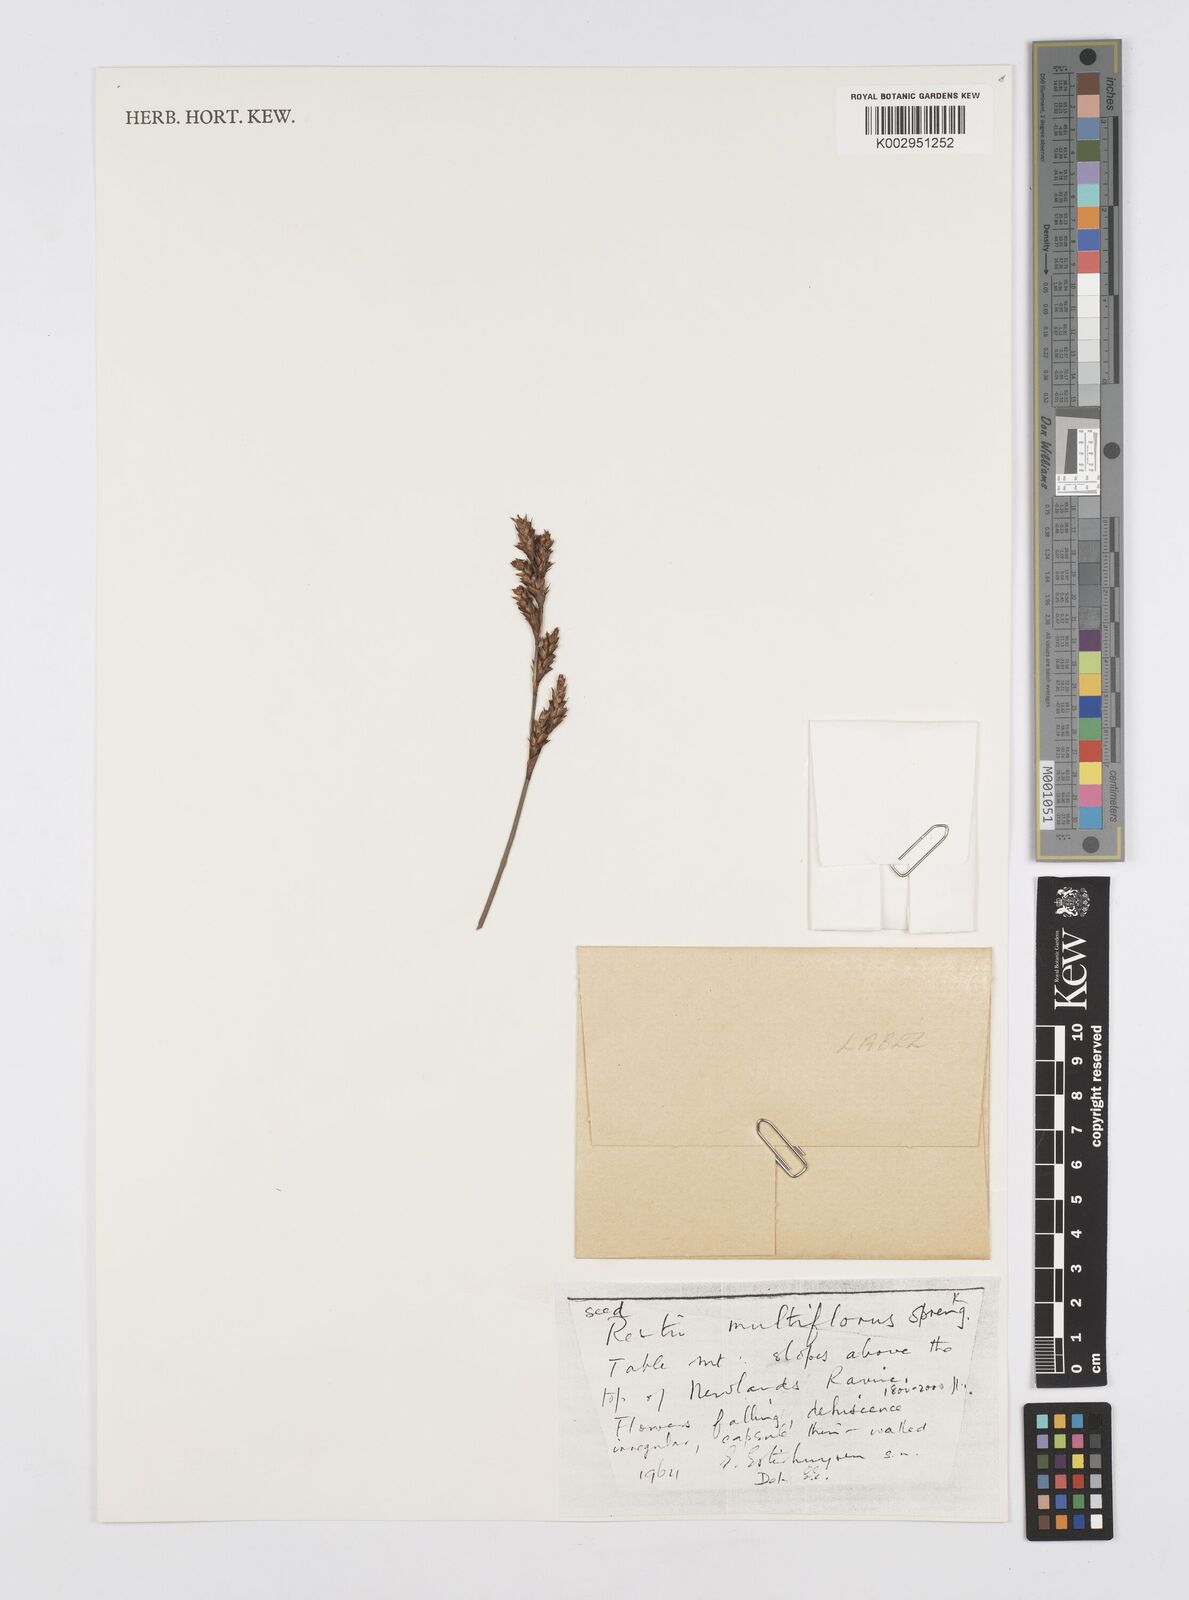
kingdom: Plantae
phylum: Tracheophyta
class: Liliopsida
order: Poales
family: Restionaceae
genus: Restio
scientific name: Restio multiflorus
